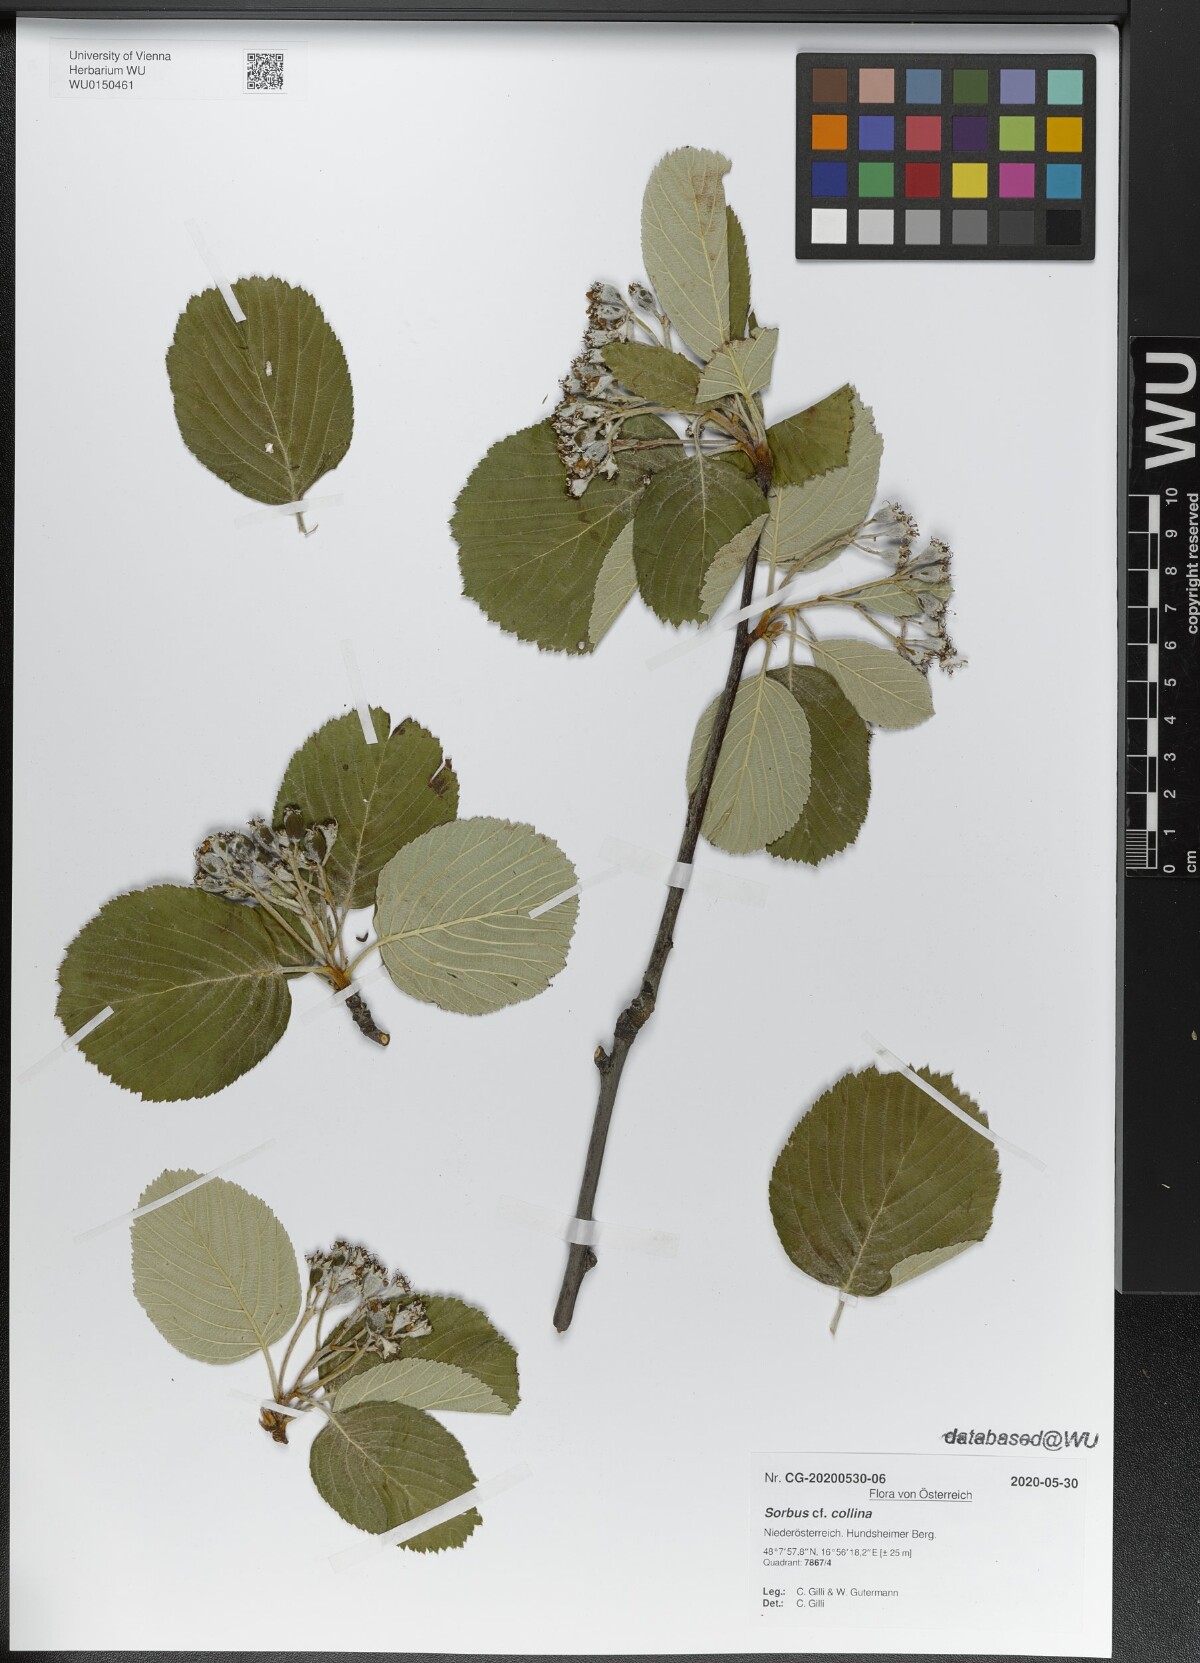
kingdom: Plantae
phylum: Tracheophyta
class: Magnoliopsida
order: Rosales
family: Rosaceae
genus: Aria
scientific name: Aria collina
